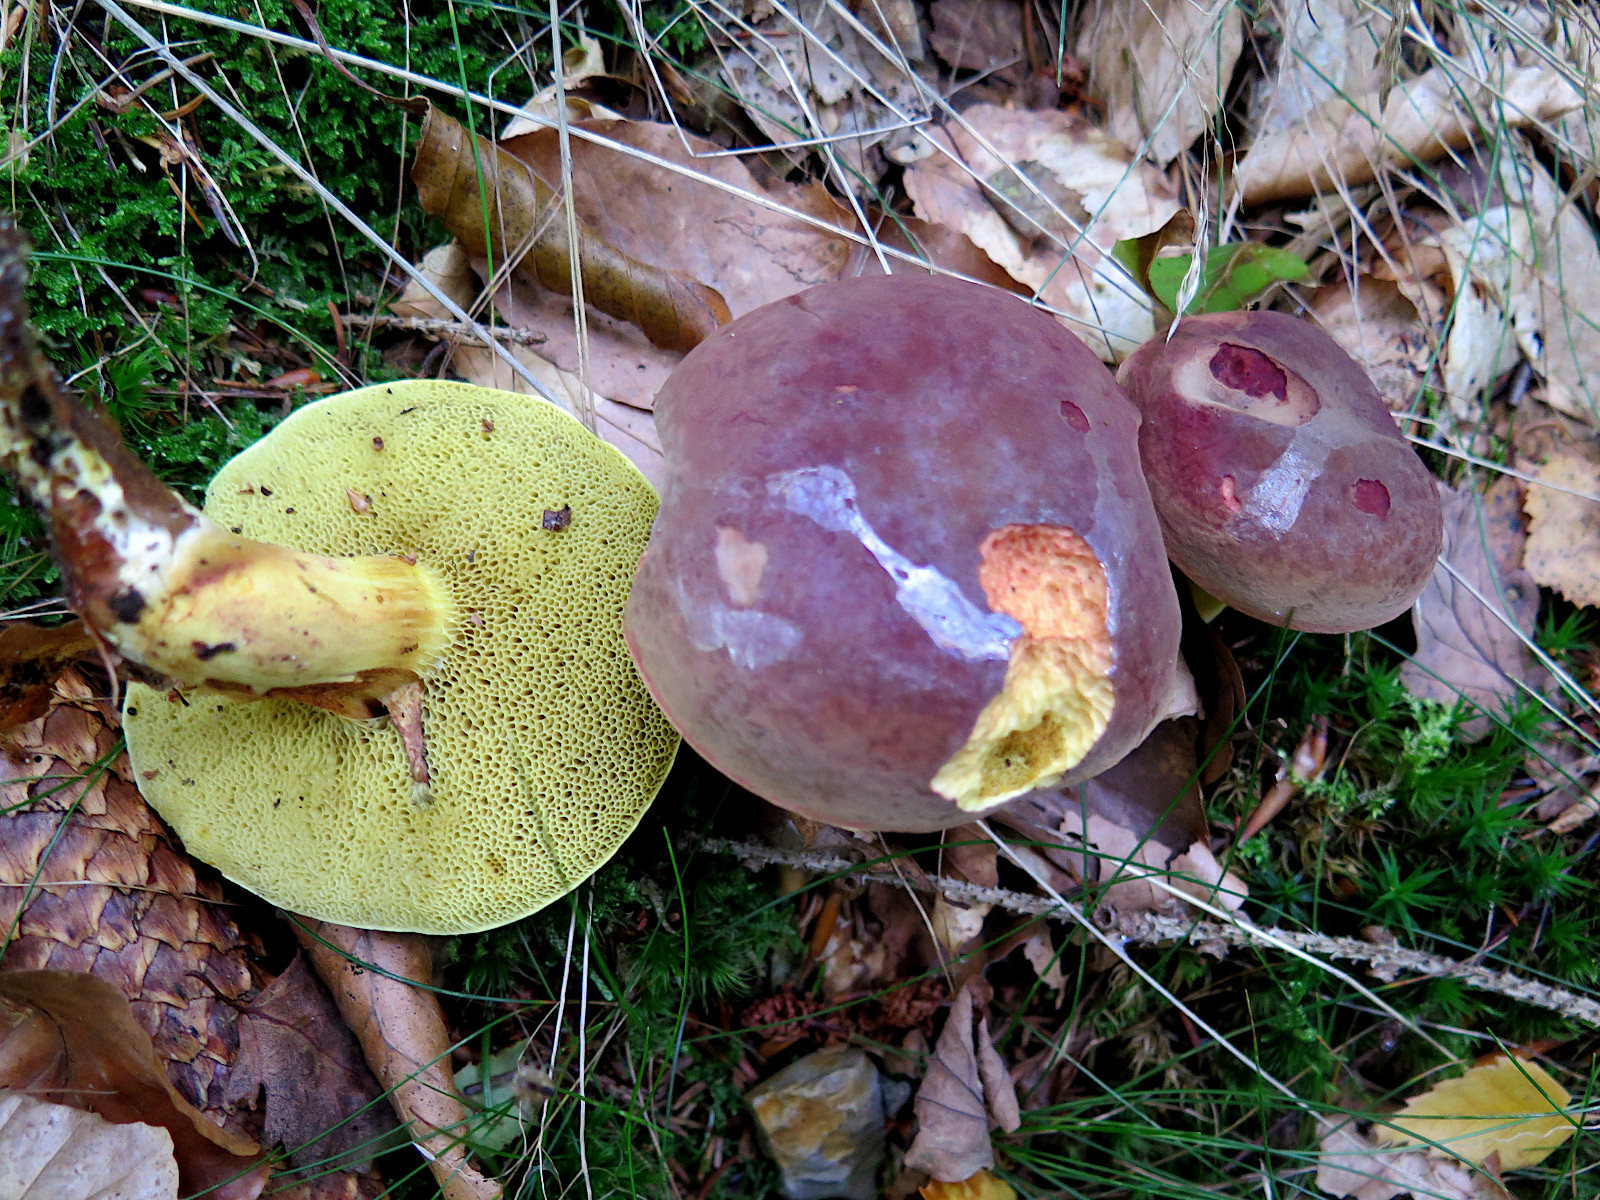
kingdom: Fungi
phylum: Basidiomycota
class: Agaricomycetes
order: Boletales
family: Boletaceae
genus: Xerocomellus
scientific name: Xerocomellus pruinatus
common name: dugget rørhat
